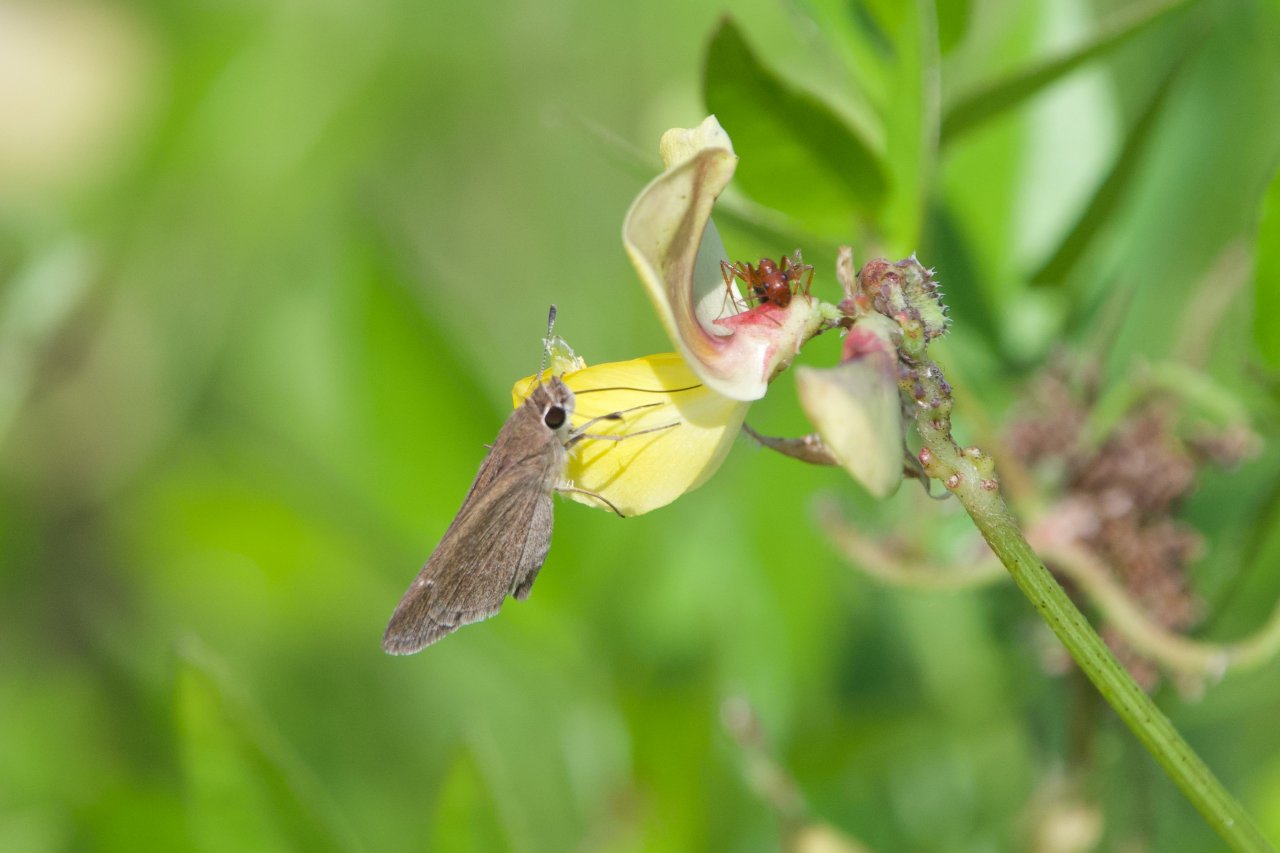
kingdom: Animalia
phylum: Arthropoda
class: Insecta
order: Lepidoptera
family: Hesperiidae
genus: Lerodea
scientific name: Lerodea eufala
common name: Eufala Skipper
